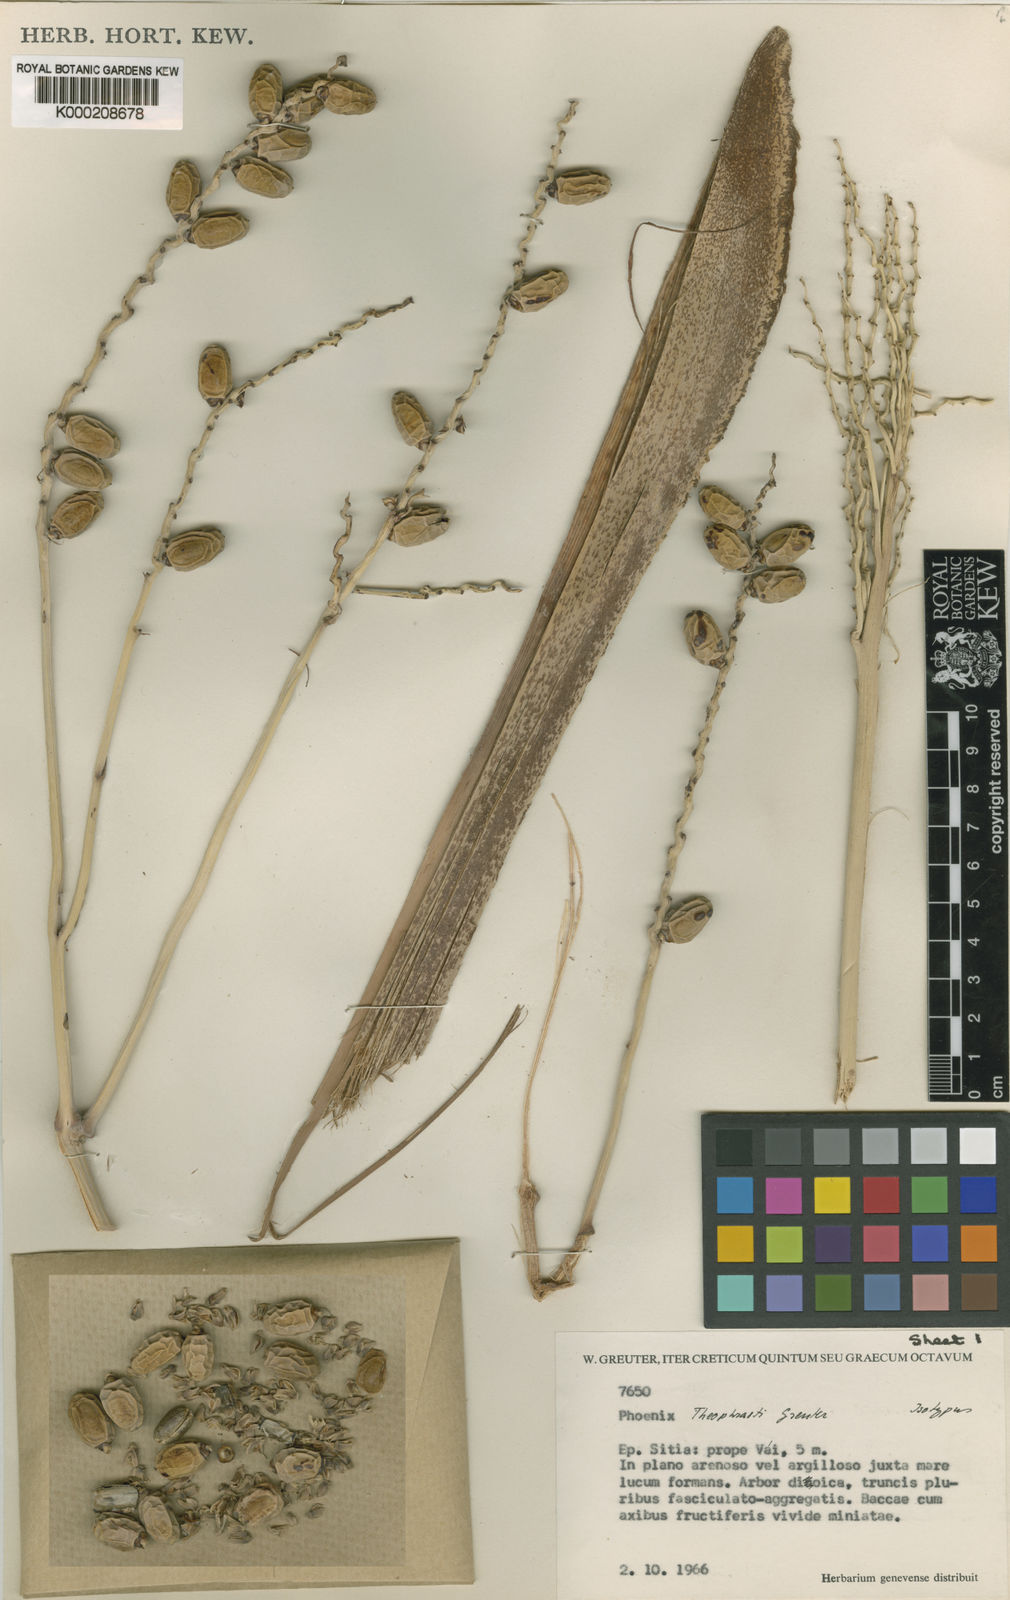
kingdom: Plantae
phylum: Tracheophyta
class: Liliopsida
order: Arecales
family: Arecaceae
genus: Phoenix
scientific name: Phoenix theophrasti
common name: Cretan date palm
